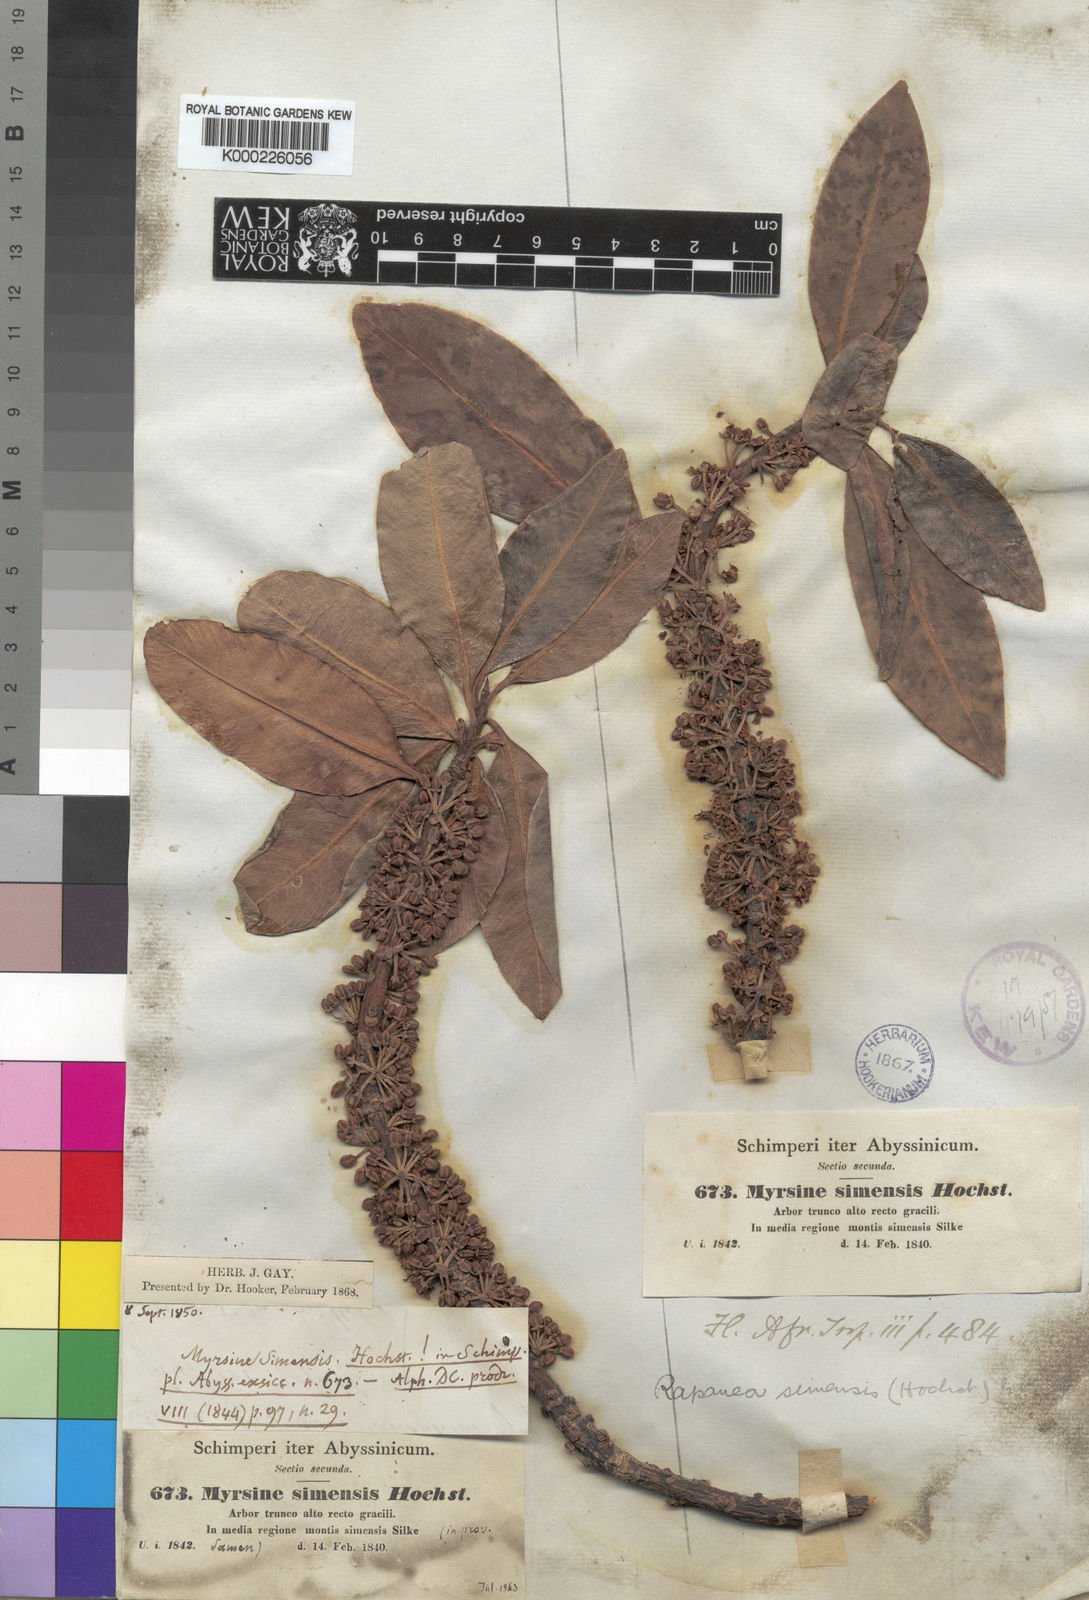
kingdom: Plantae
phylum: Tracheophyta
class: Magnoliopsida
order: Ericales
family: Primulaceae
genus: Myrsine
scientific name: Myrsine melanophloeos
